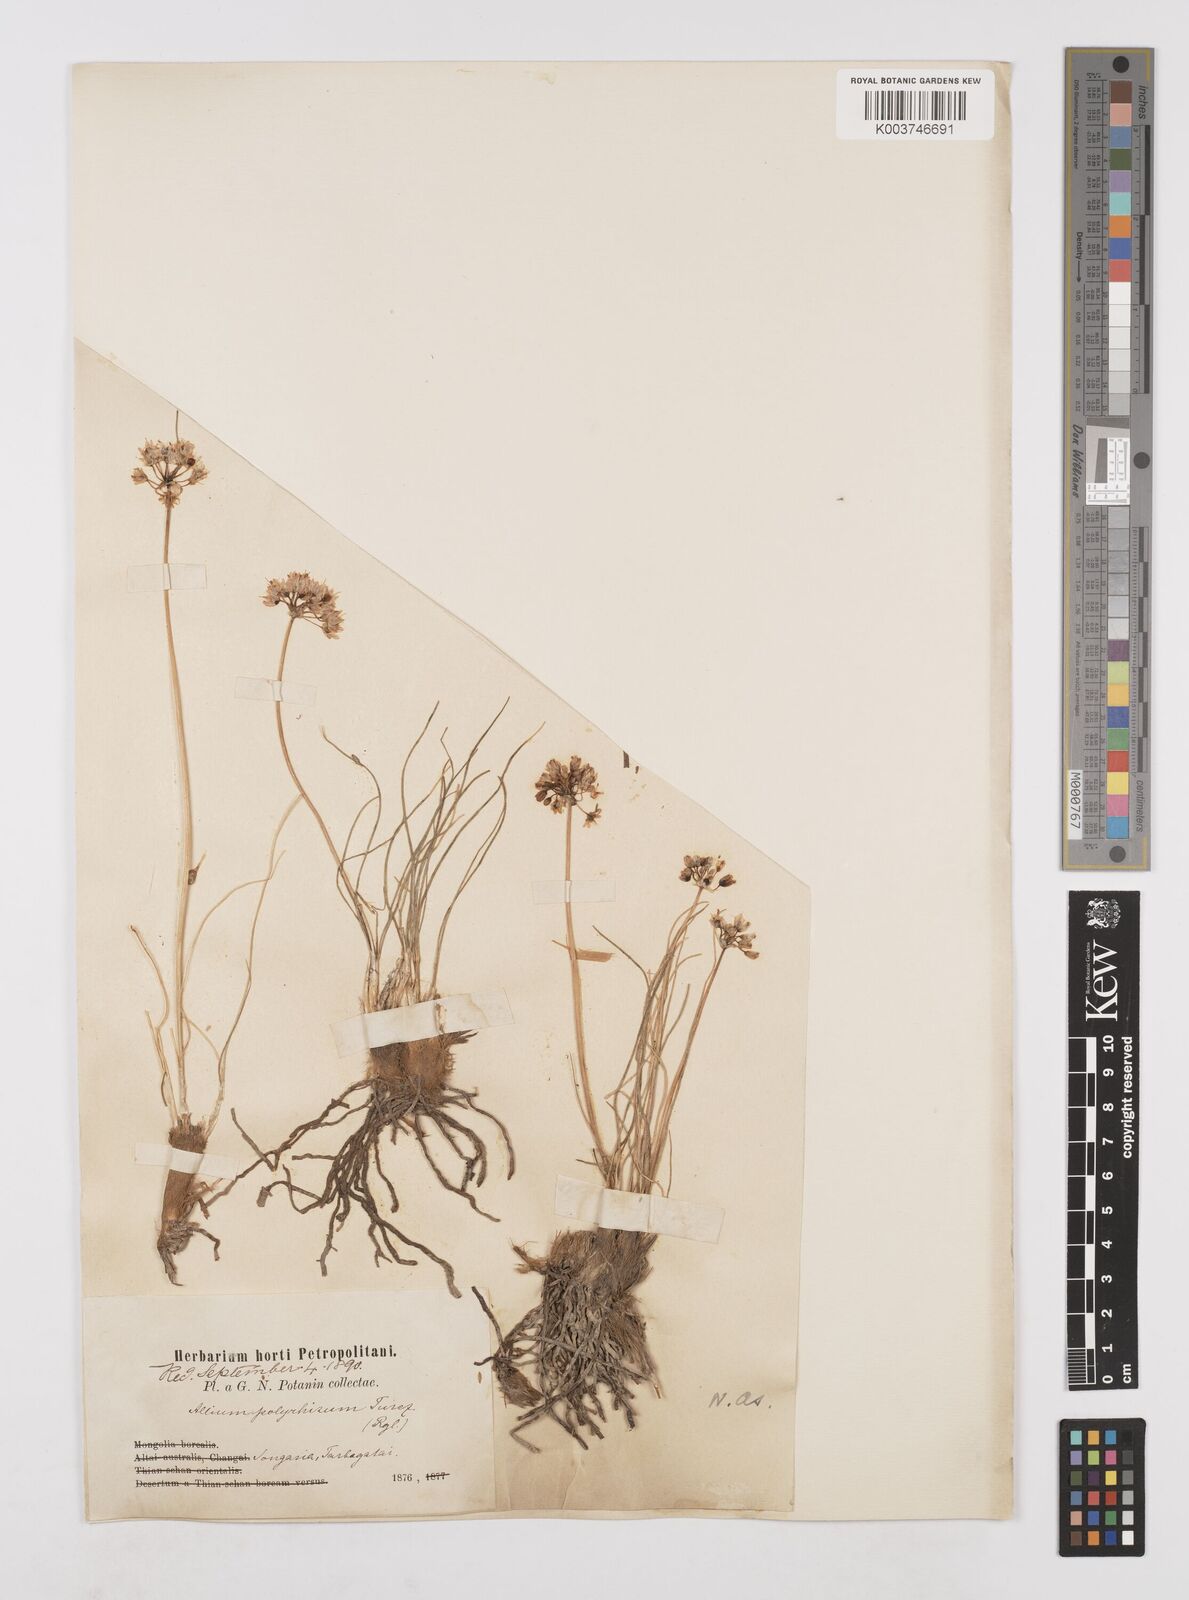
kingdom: Plantae
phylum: Tracheophyta
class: Liliopsida
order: Asparagales
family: Amaryllidaceae
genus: Allium
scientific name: Allium polyrhizum
